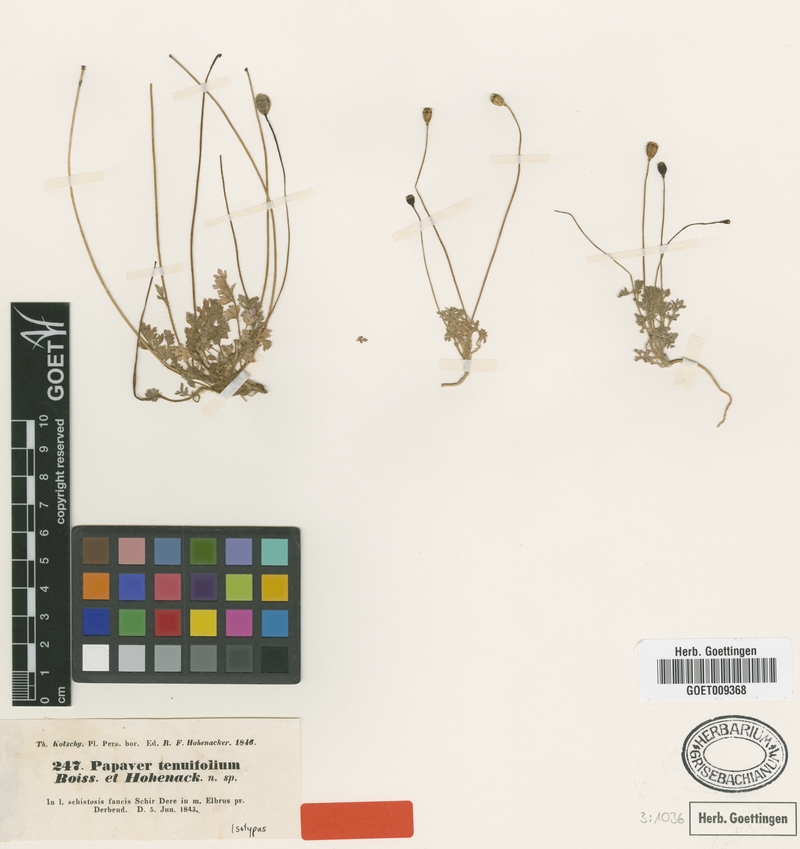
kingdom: Plantae
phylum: Tracheophyta
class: Magnoliopsida
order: Ranunculales
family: Papaveraceae
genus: Papaver
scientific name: Papaver tenuifolium
